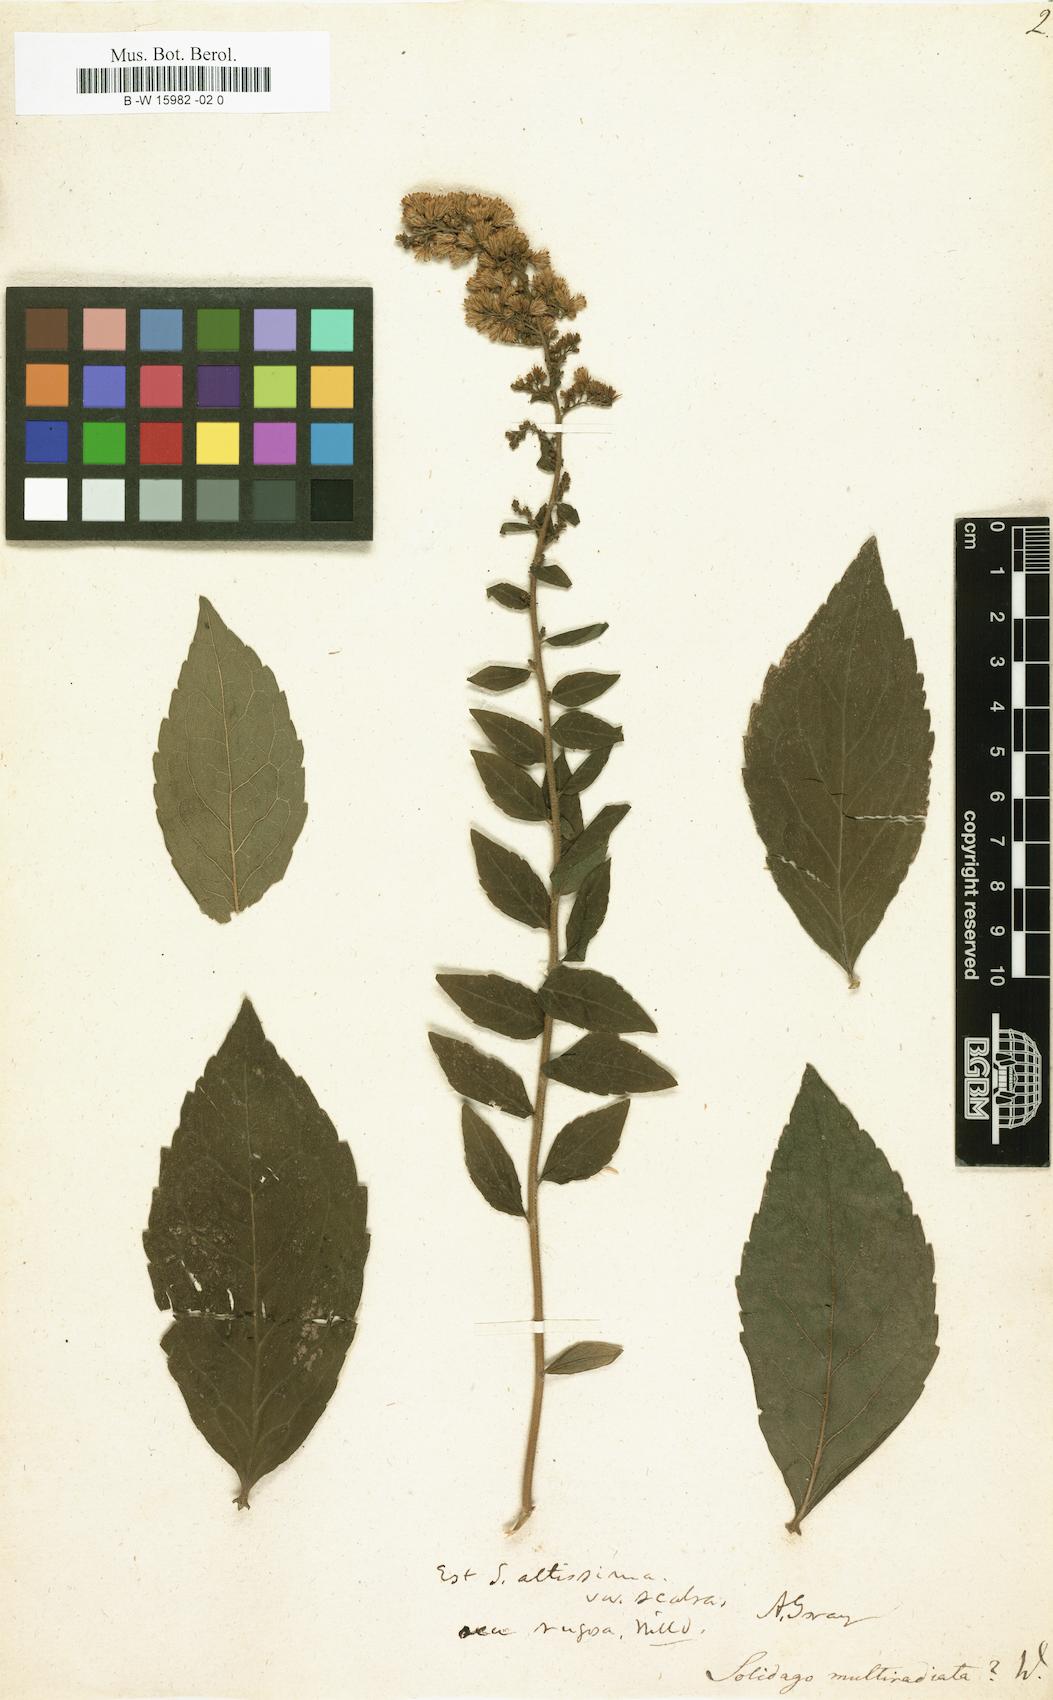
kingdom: Plantae
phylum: Tracheophyta
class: Magnoliopsida
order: Asterales
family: Asteraceae
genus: Solidago
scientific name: Solidago multiradiata
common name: Northern goldenrod
